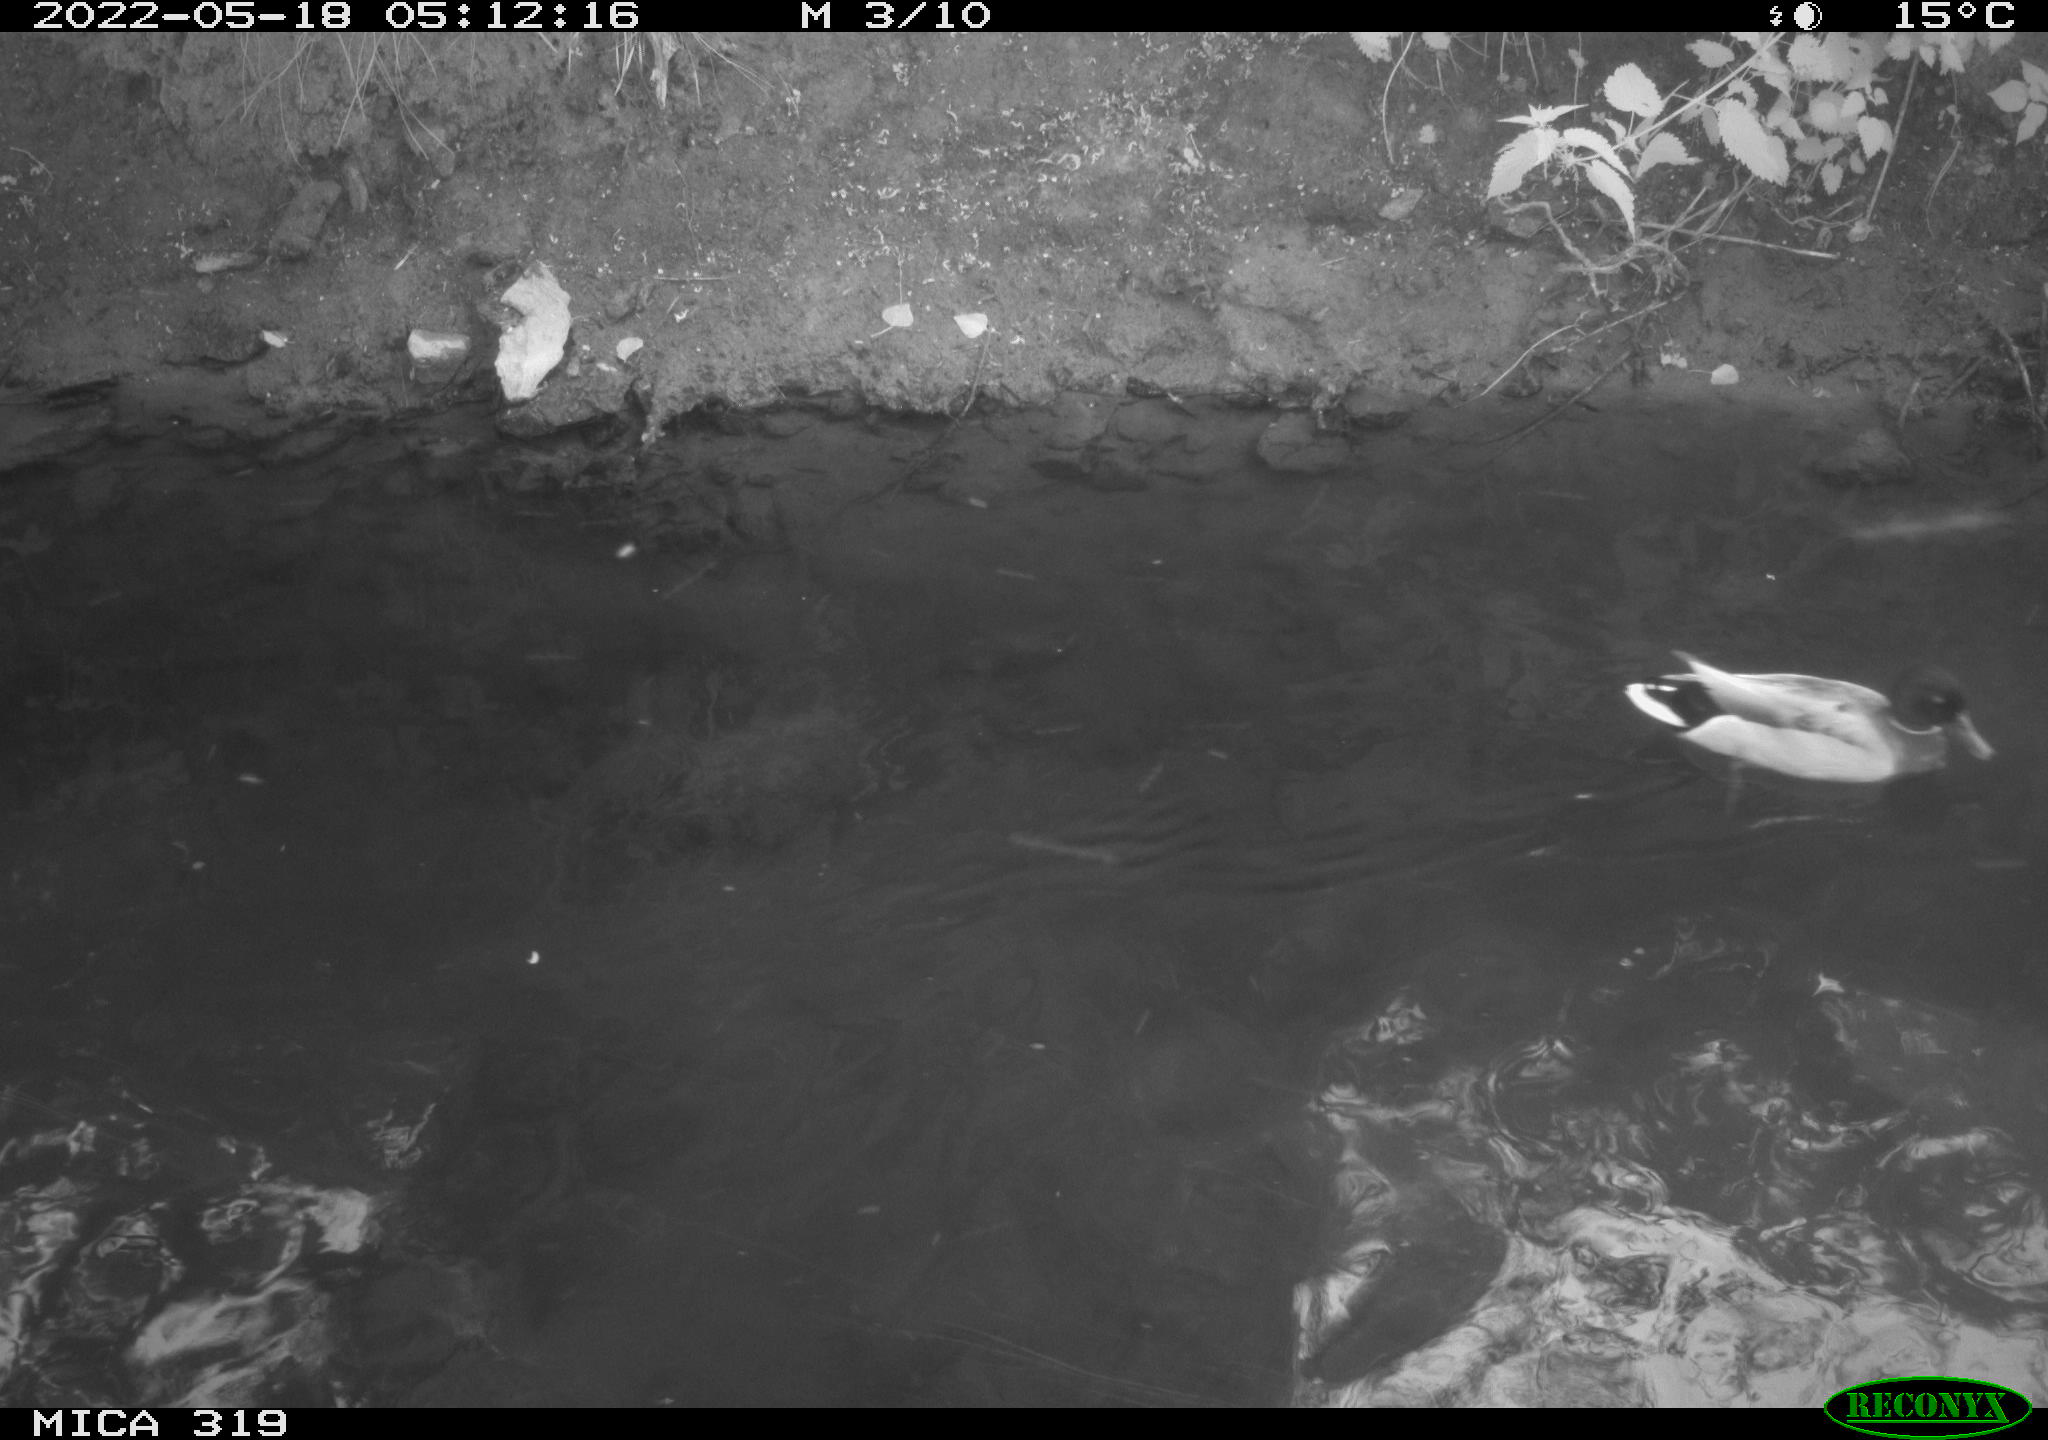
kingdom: Animalia
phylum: Chordata
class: Aves
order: Anseriformes
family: Anatidae
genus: Anas
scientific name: Anas
